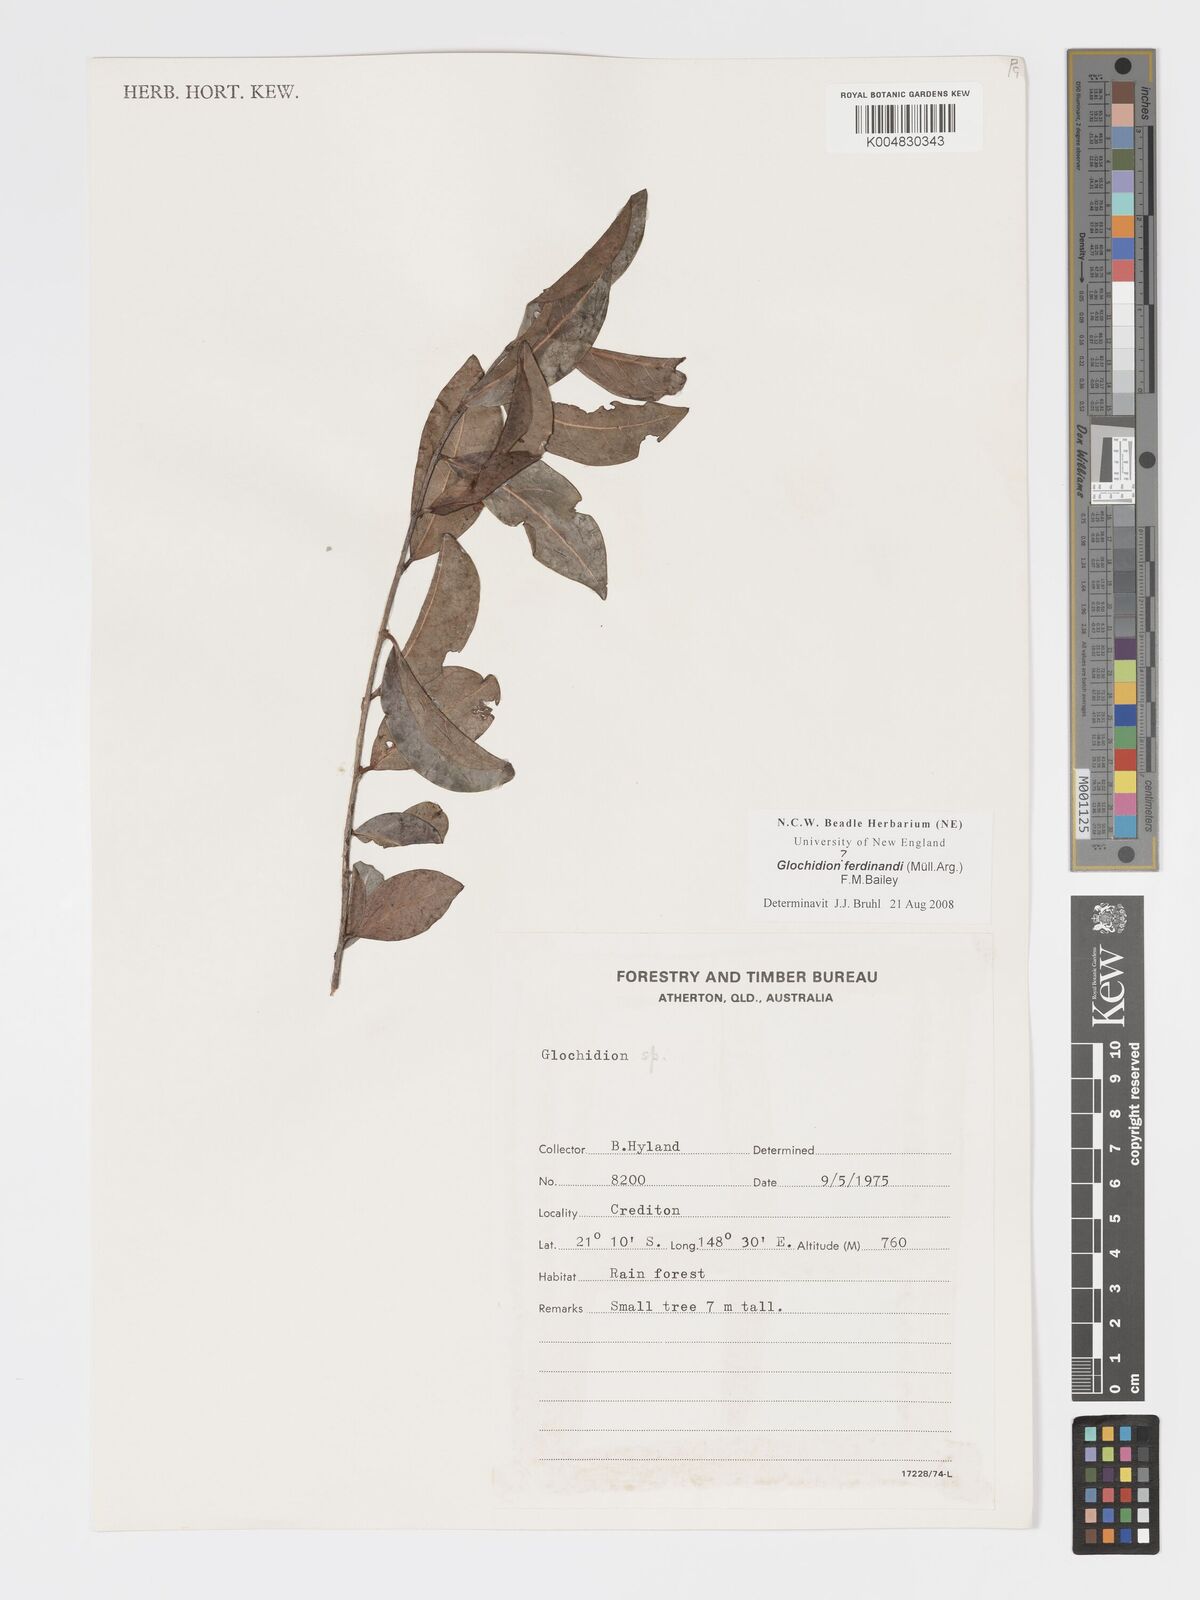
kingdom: Plantae
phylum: Tracheophyta
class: Magnoliopsida
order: Malpighiales
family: Phyllanthaceae
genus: Glochidion
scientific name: Glochidion ferdinandi
